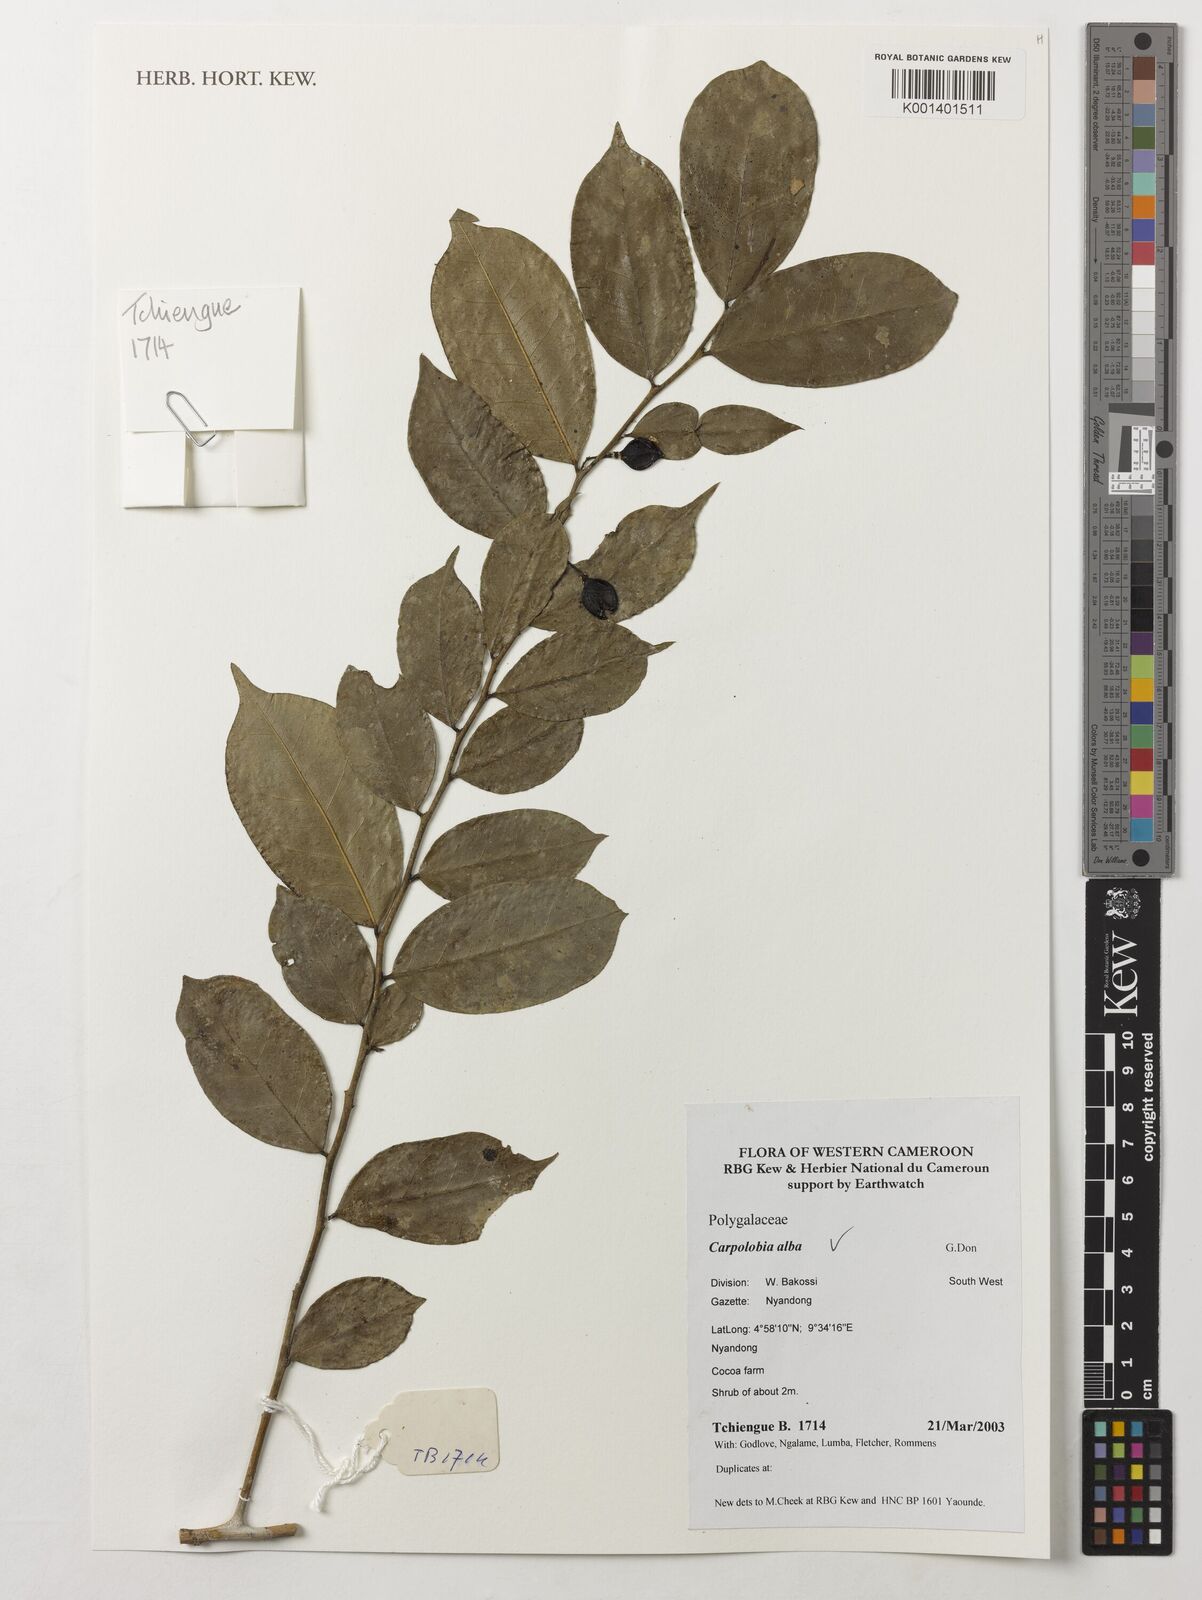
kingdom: Plantae
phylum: Tracheophyta
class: Magnoliopsida
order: Fabales
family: Polygalaceae
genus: Carpolobia
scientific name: Carpolobia alba
